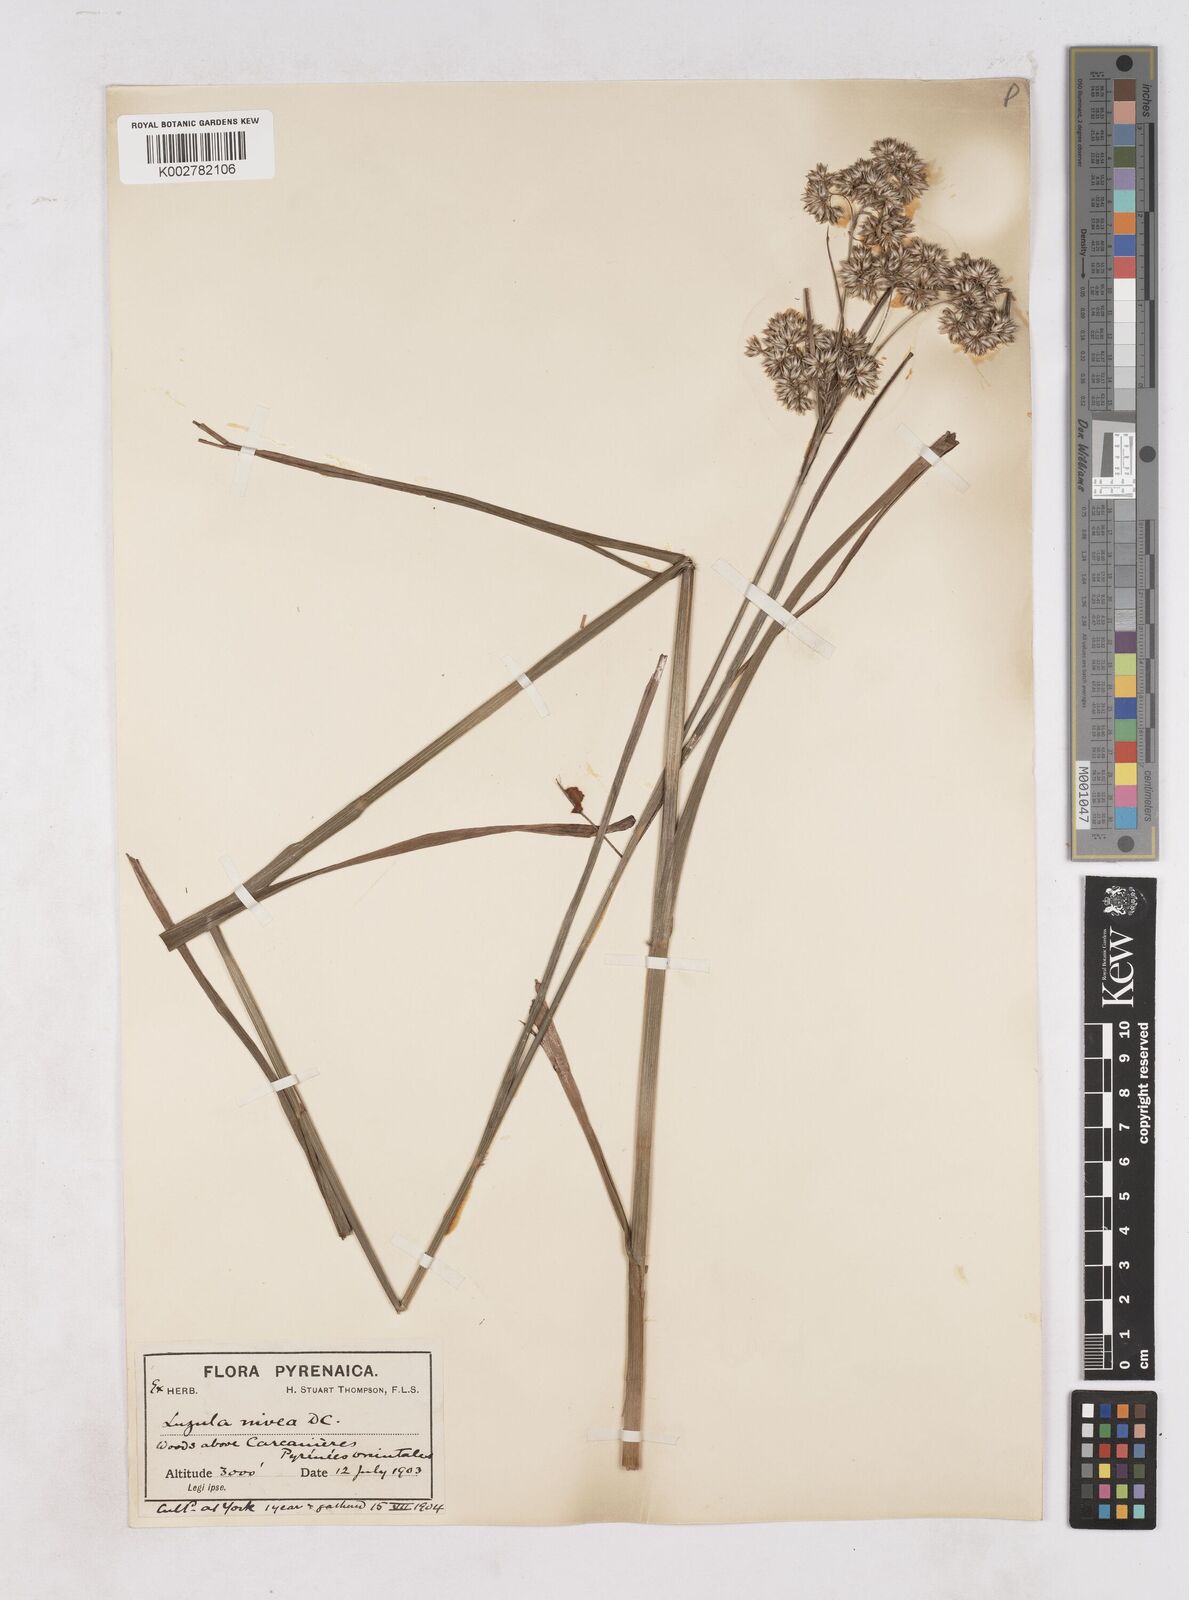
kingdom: Plantae
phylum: Tracheophyta
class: Liliopsida
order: Poales
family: Juncaceae
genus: Luzula
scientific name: Luzula nivea
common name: Snow-white wood-rush
